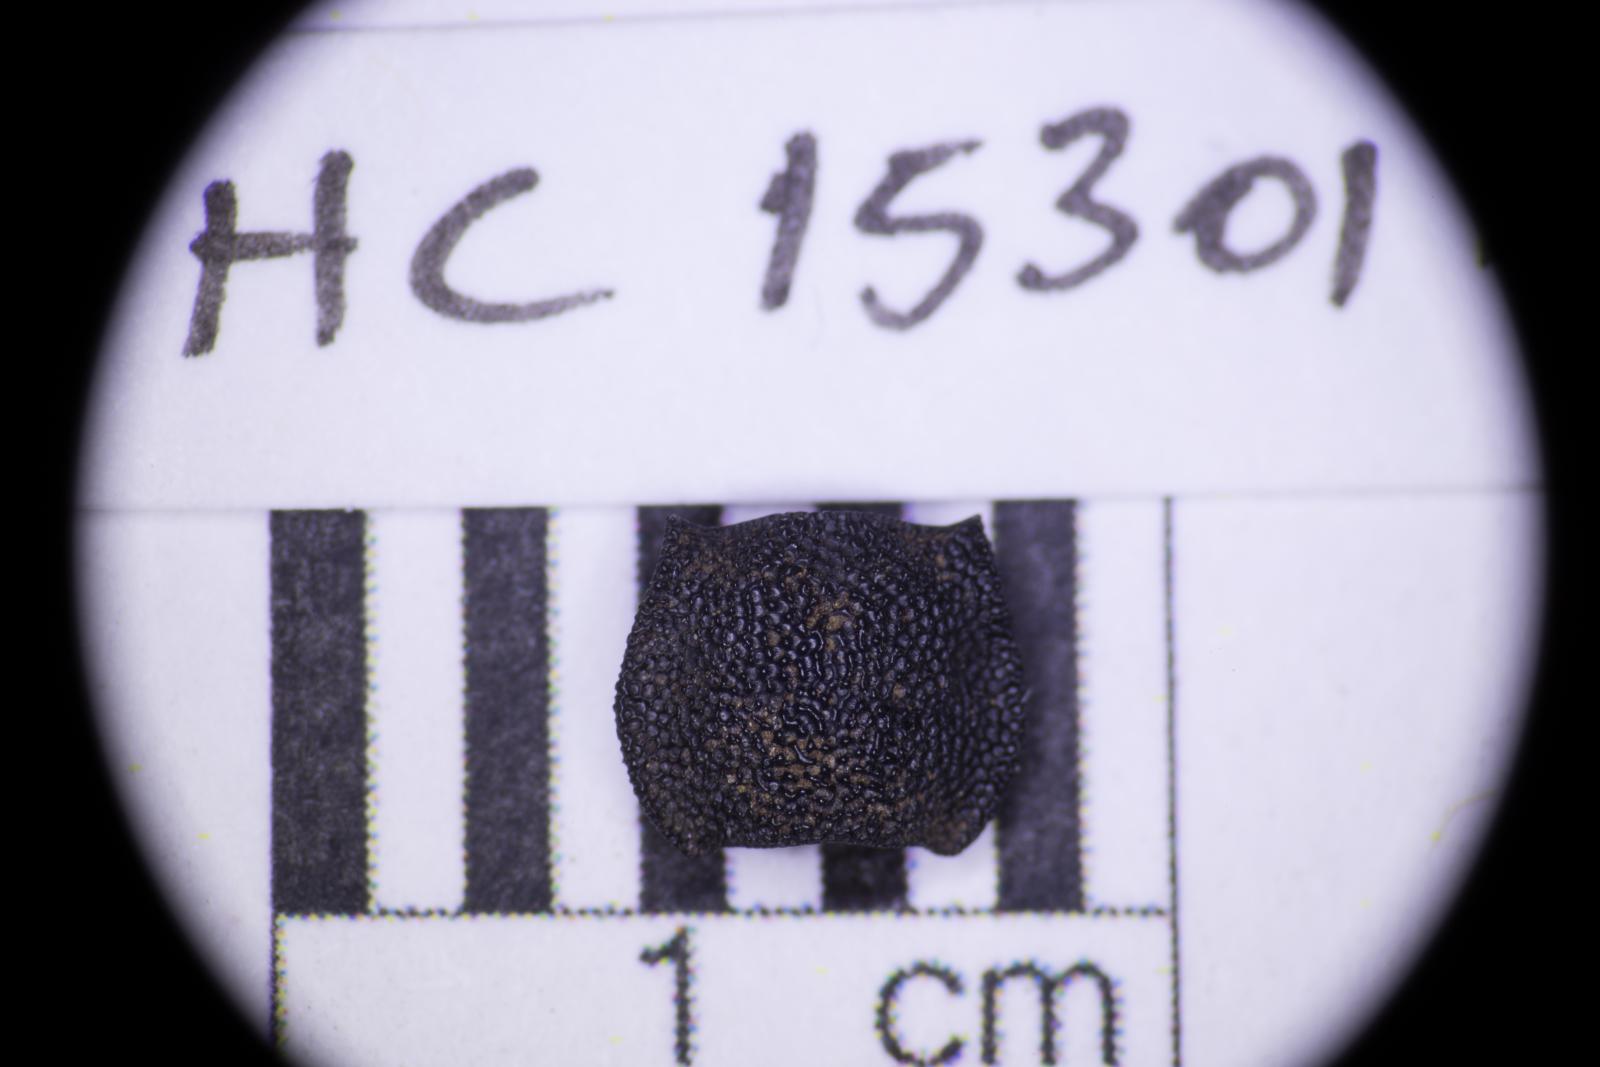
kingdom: Animalia
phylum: Arthropoda
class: Insecta
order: Coleoptera
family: Tenebrionidae
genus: Nyctoporis
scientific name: Nyctoporis carinata
